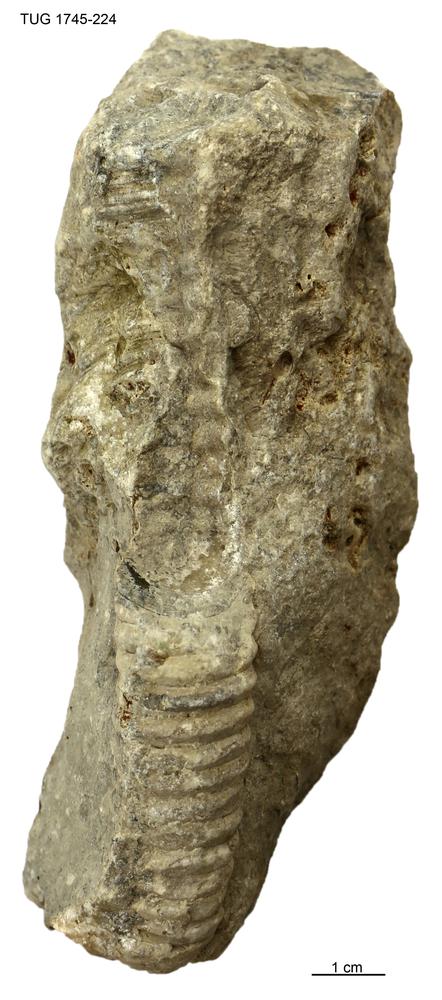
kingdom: Animalia
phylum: Mollusca
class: Cephalopoda
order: Nautilida
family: Nautilidae
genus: Dawsonoceras
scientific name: Dawsonoceras
